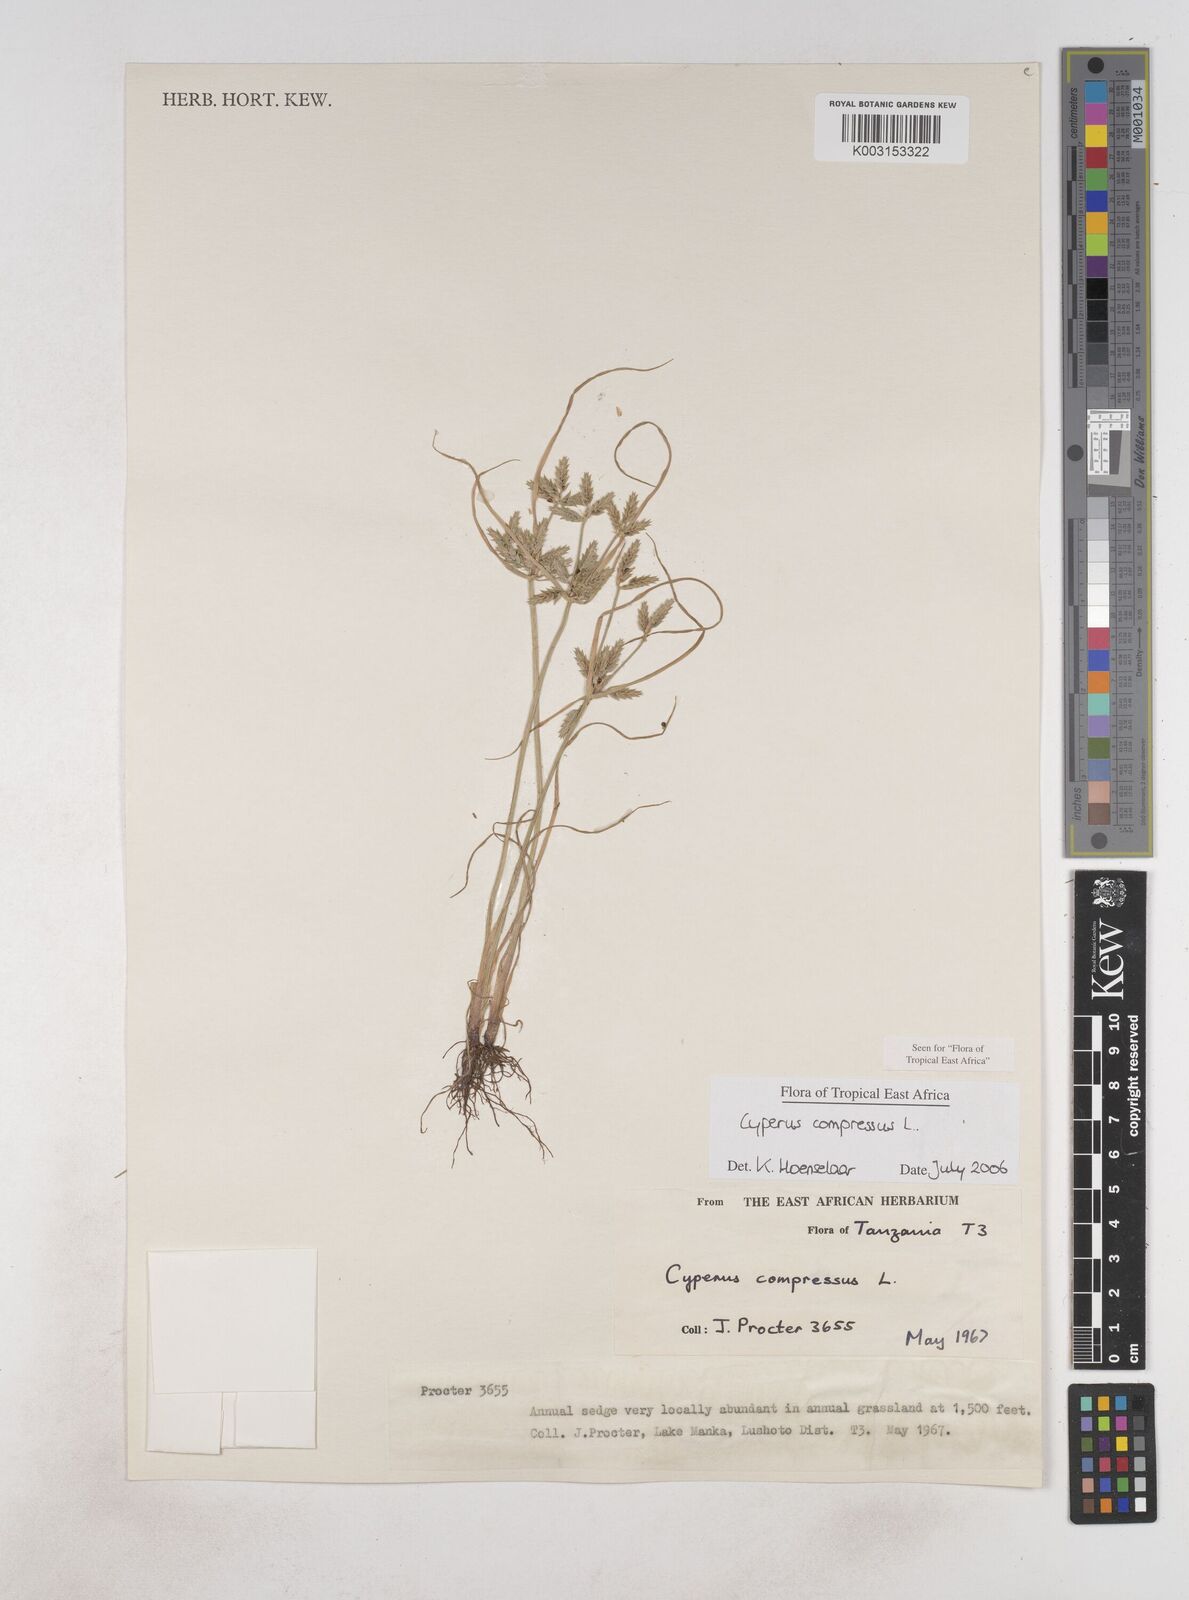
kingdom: Plantae
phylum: Tracheophyta
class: Liliopsida
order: Poales
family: Cyperaceae
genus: Cyperus
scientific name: Cyperus compressus
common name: Poorland flatsedge
